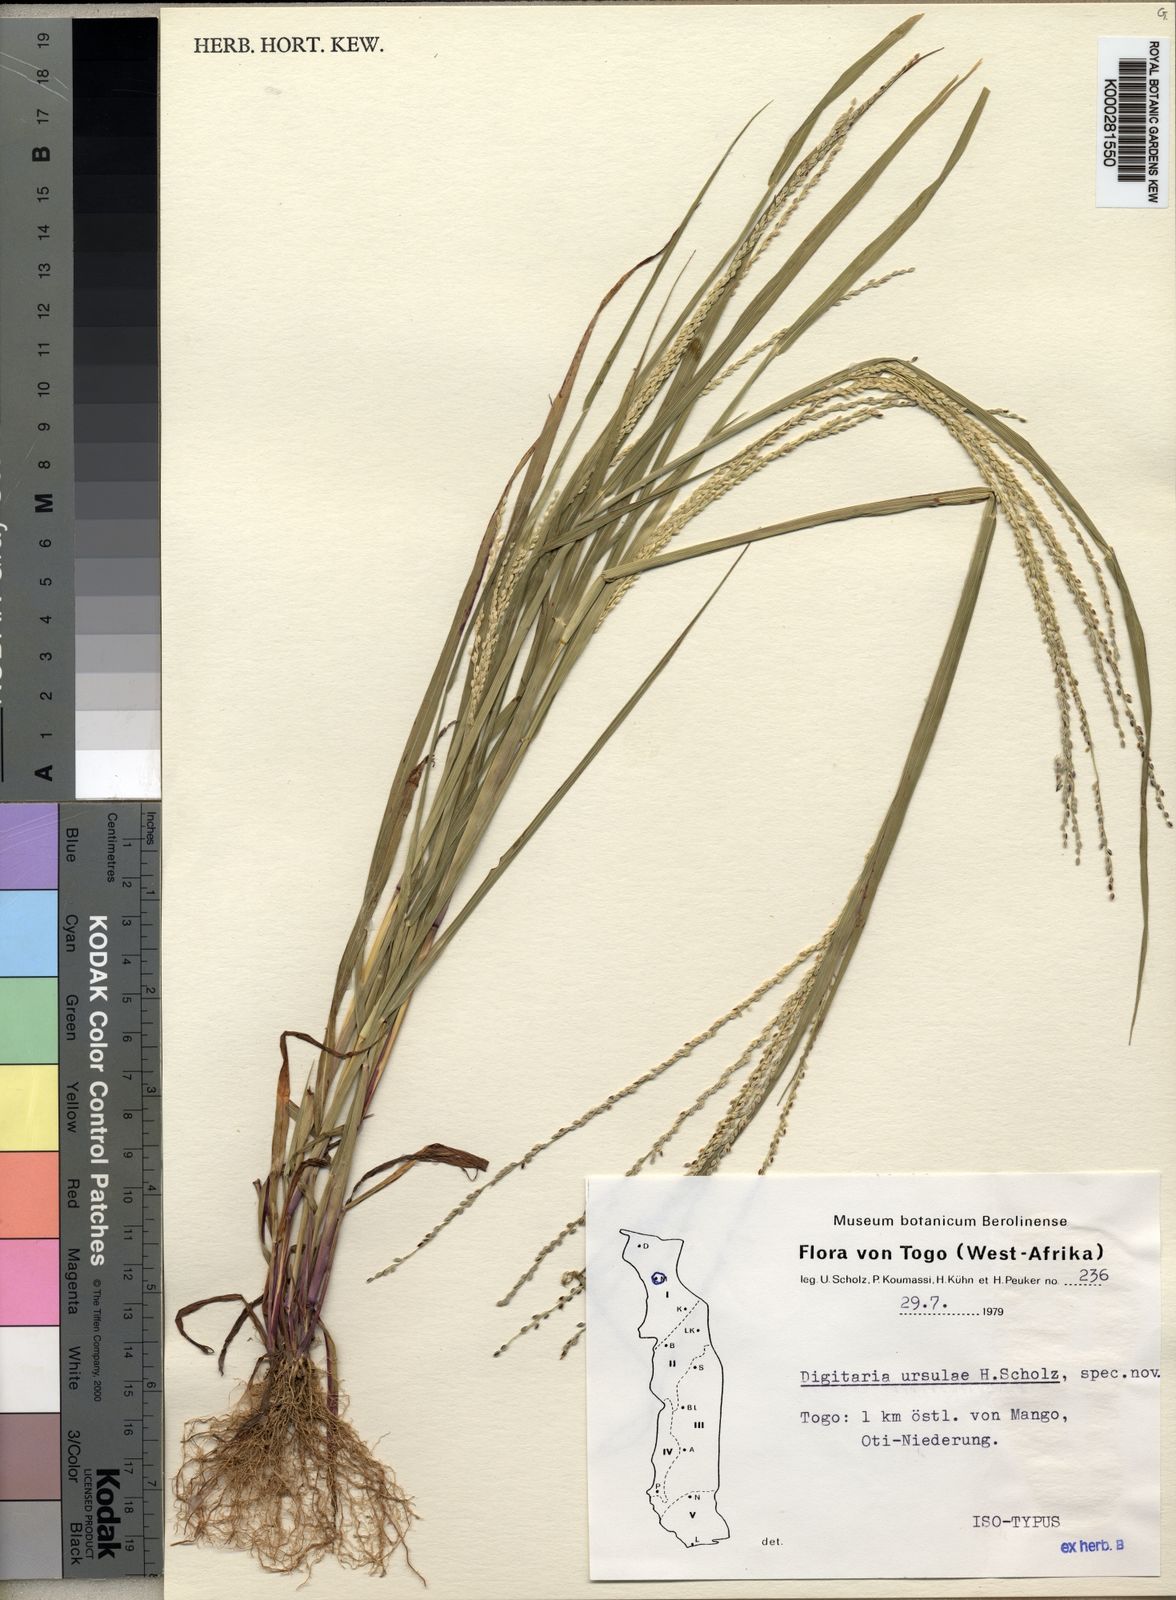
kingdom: Plantae
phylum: Tracheophyta
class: Liliopsida
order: Poales
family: Poaceae
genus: Digitaria
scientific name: Digitaria ursulae
